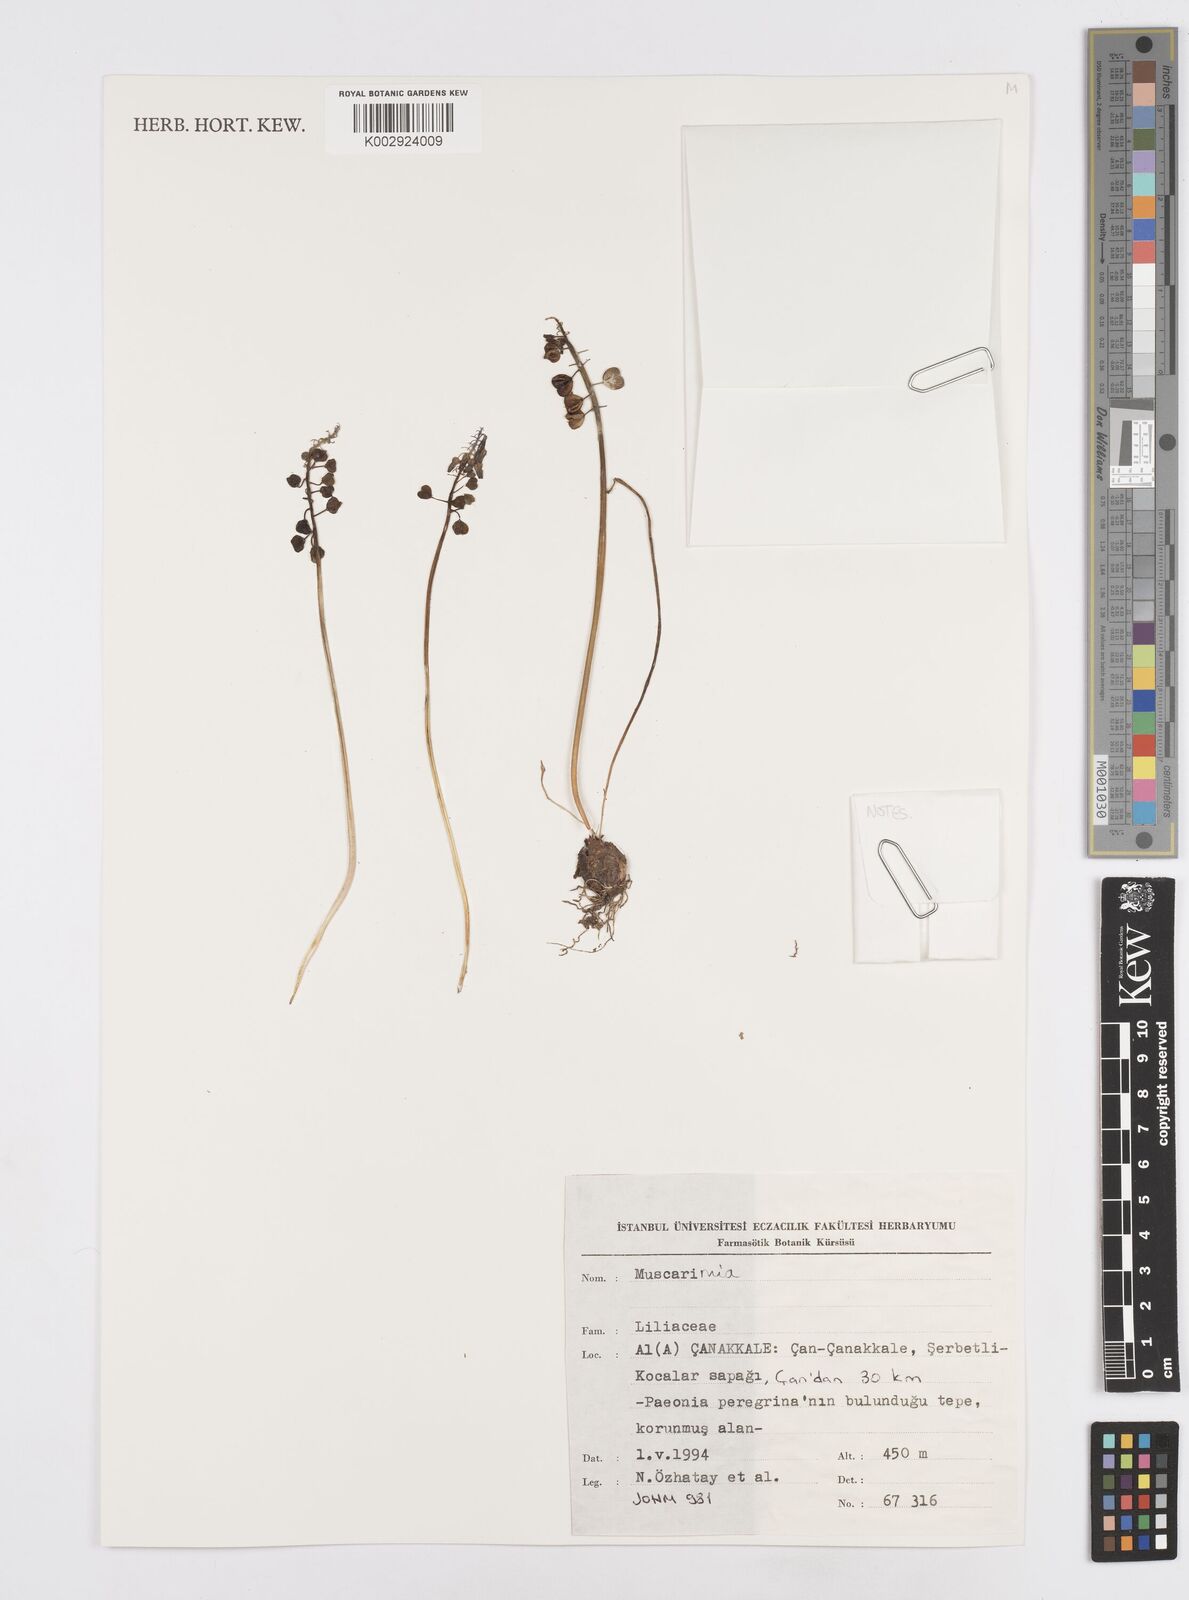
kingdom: Plantae
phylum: Tracheophyta
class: Liliopsida
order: Asparagales
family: Asparagaceae
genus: Muscari
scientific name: Muscari
